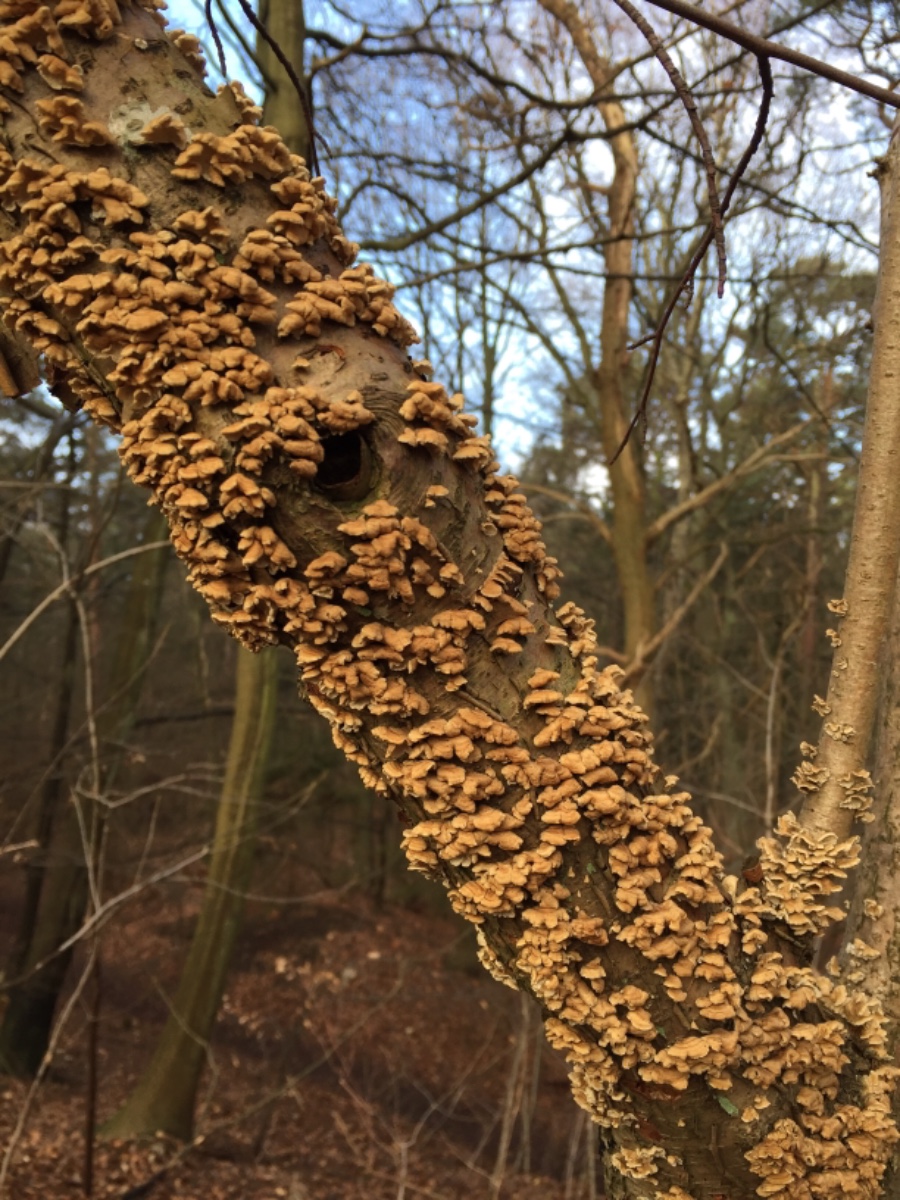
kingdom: Fungi
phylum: Basidiomycota
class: Agaricomycetes
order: Amylocorticiales
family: Amylocorticiaceae
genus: Plicaturopsis
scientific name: Plicaturopsis crispa
